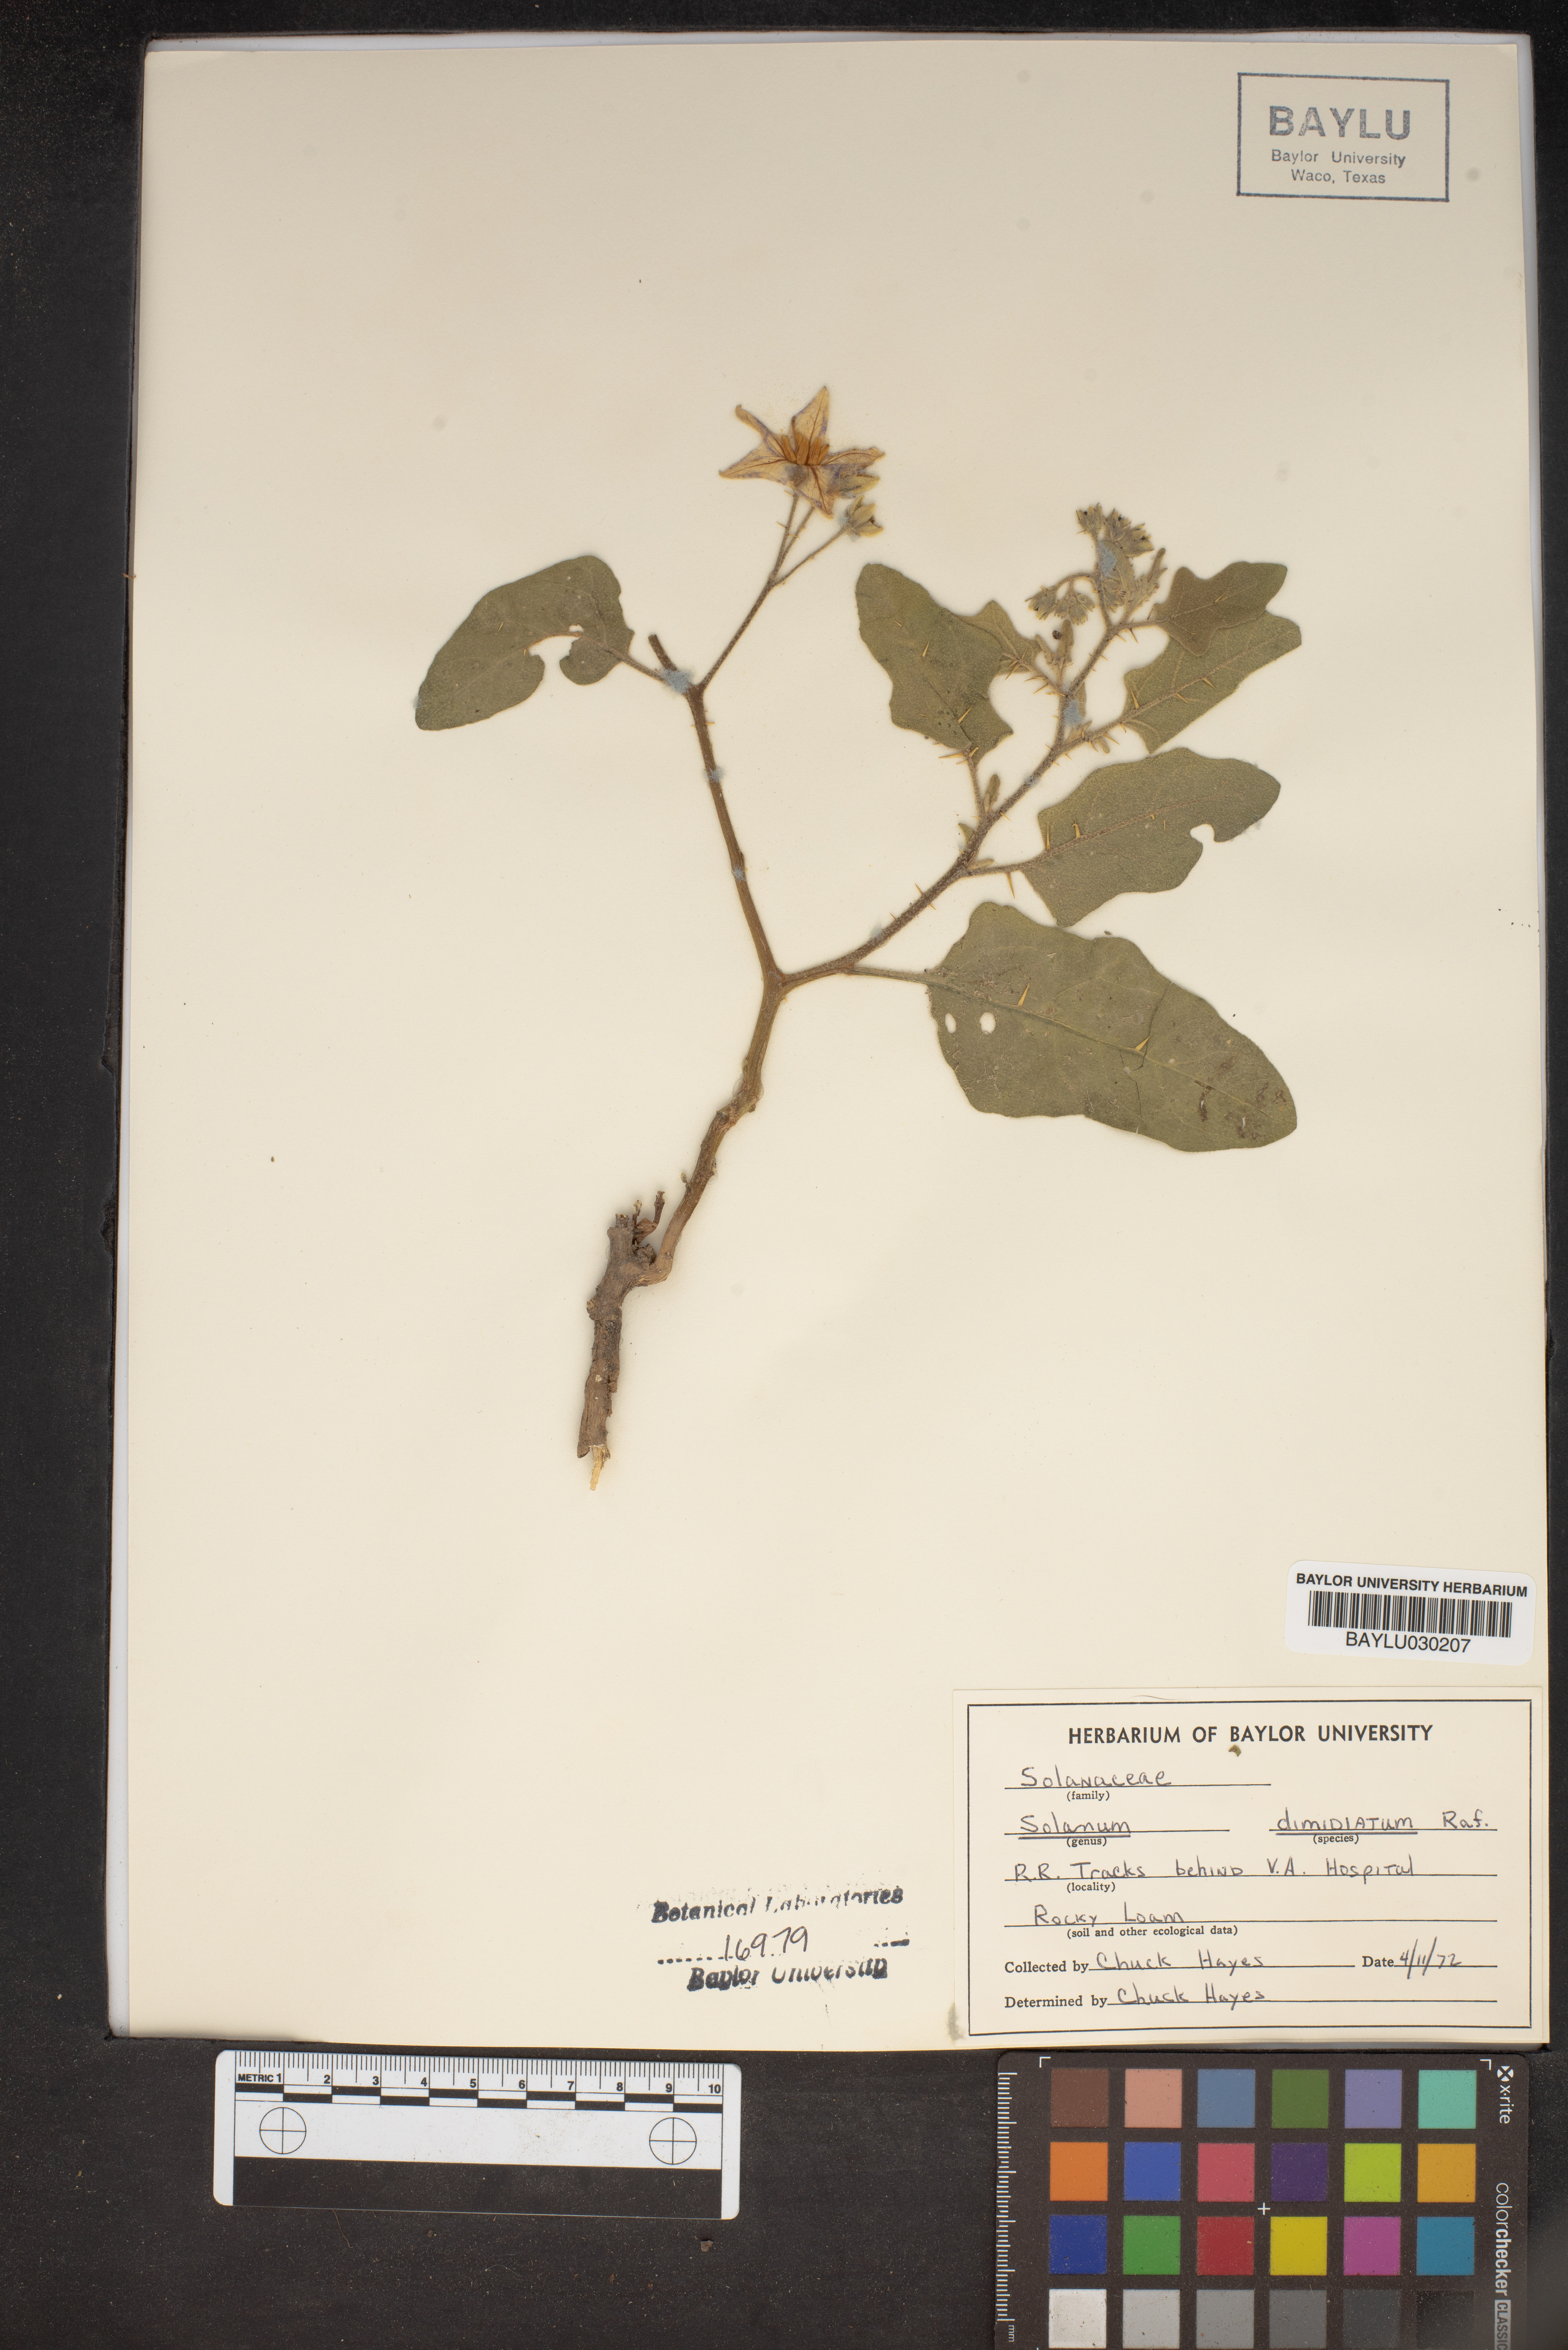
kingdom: Plantae
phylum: Tracheophyta
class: Magnoliopsida
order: Solanales
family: Solanaceae
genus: Solanum
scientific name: Solanum dimidiatum
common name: Carolina horse-nettle
